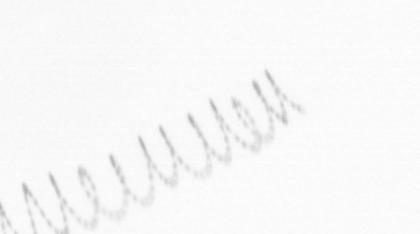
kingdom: Chromista
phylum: Ochrophyta
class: Bacillariophyceae
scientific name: Bacillariophyceae
